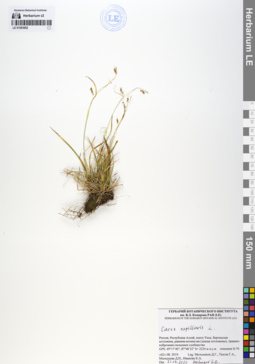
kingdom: Plantae
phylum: Tracheophyta
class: Liliopsida
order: Poales
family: Cyperaceae
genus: Carex
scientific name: Carex capillaris
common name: Hair sedge
